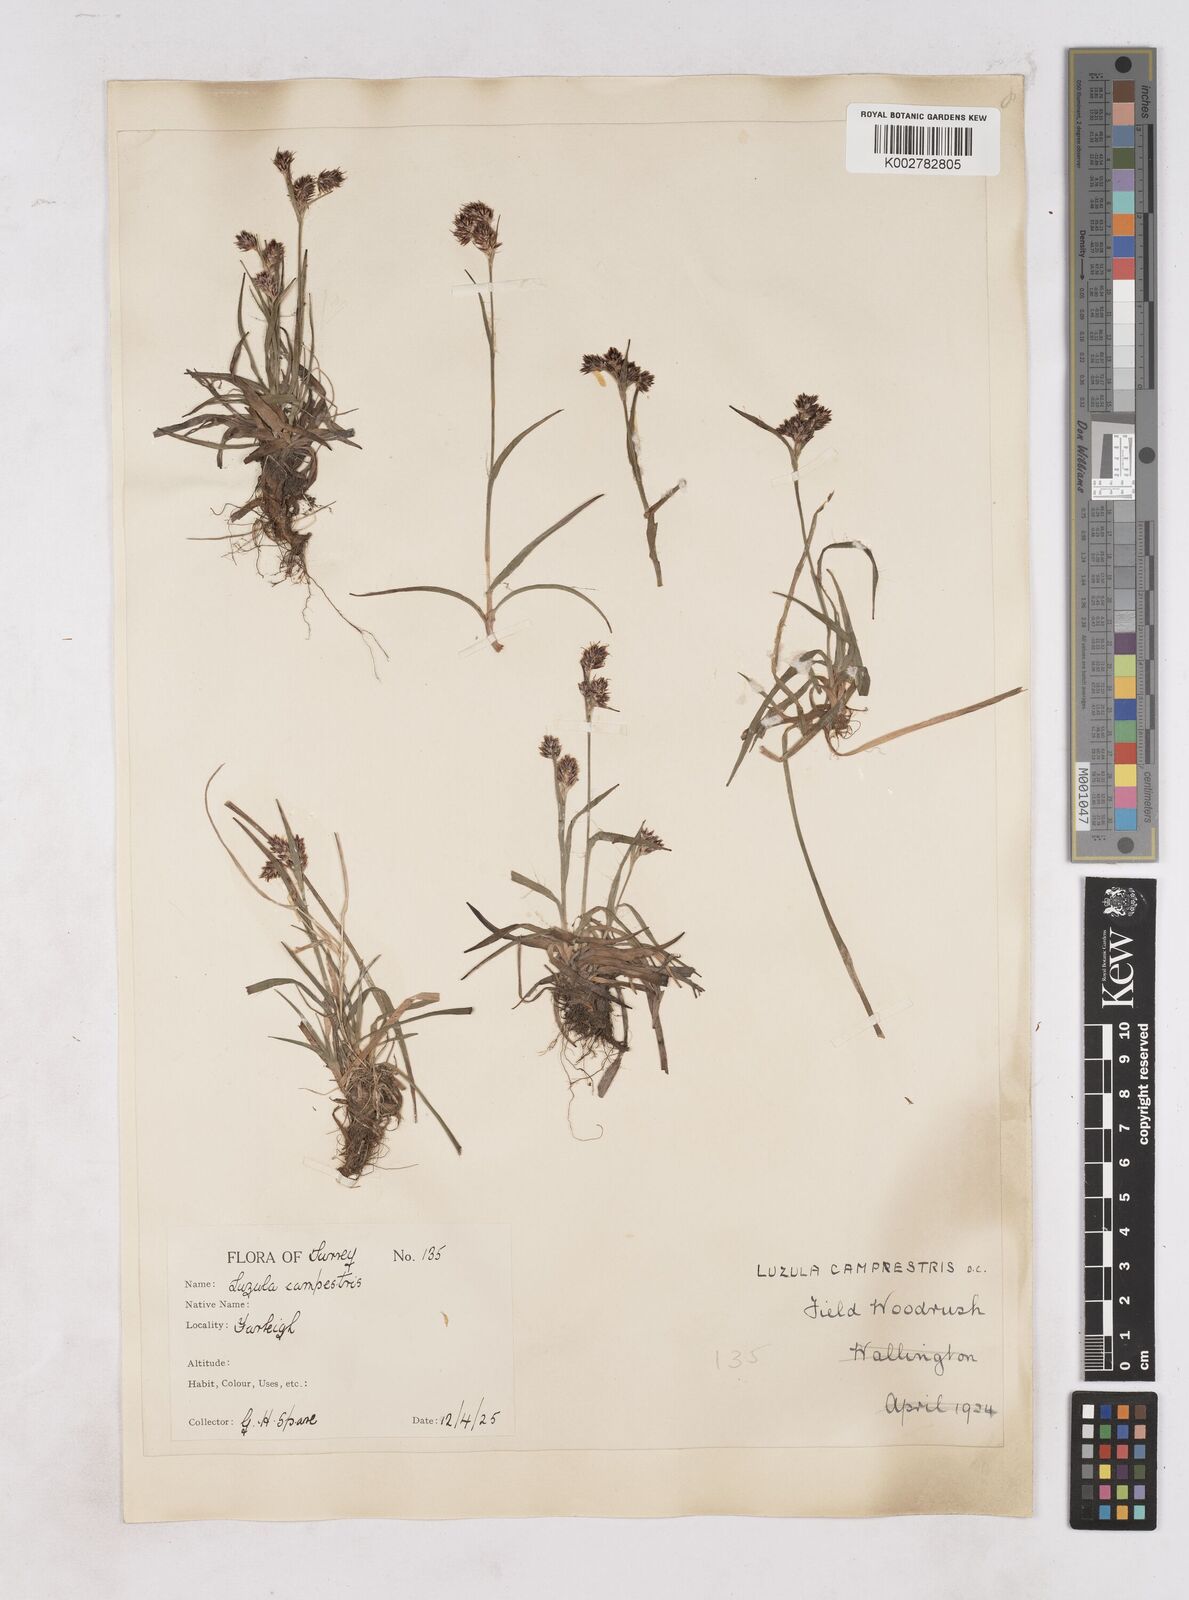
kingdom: Plantae
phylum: Tracheophyta
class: Liliopsida
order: Poales
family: Juncaceae
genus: Luzula
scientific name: Luzula campestris
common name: Field wood-rush
